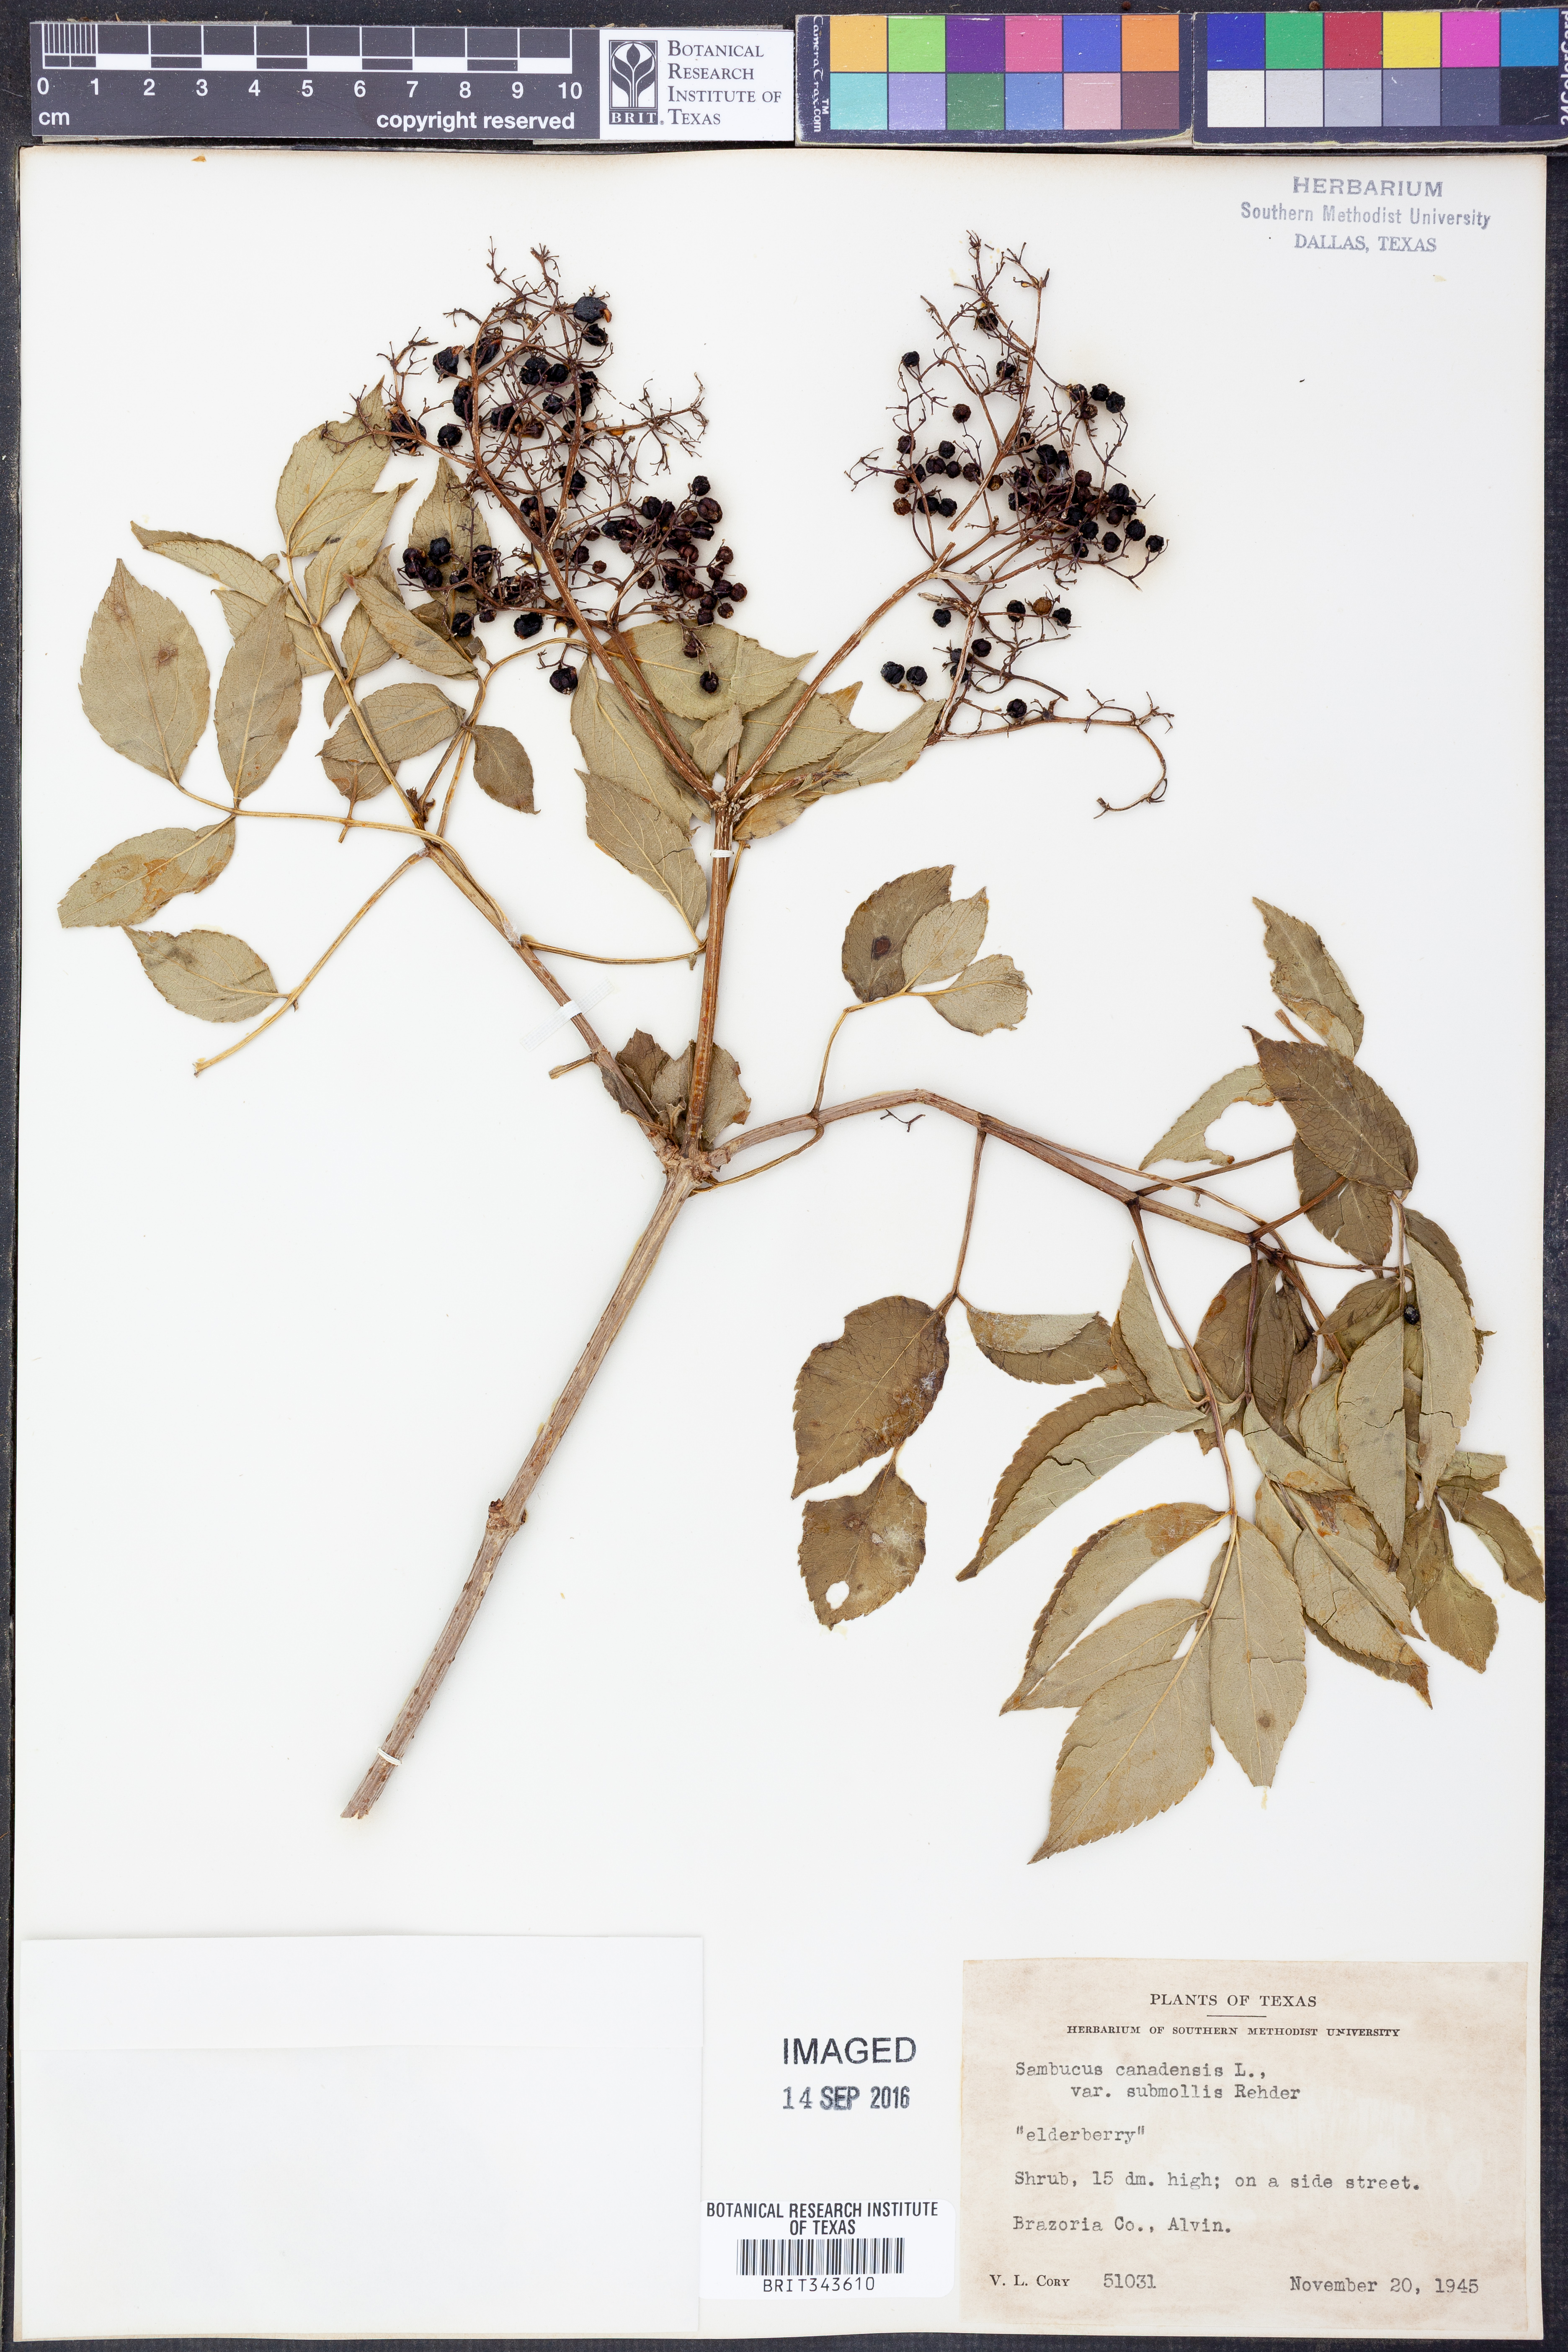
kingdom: Plantae
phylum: Tracheophyta
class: Magnoliopsida
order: Dipsacales
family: Viburnaceae
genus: Sambucus
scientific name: Sambucus canadensis
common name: American elder
